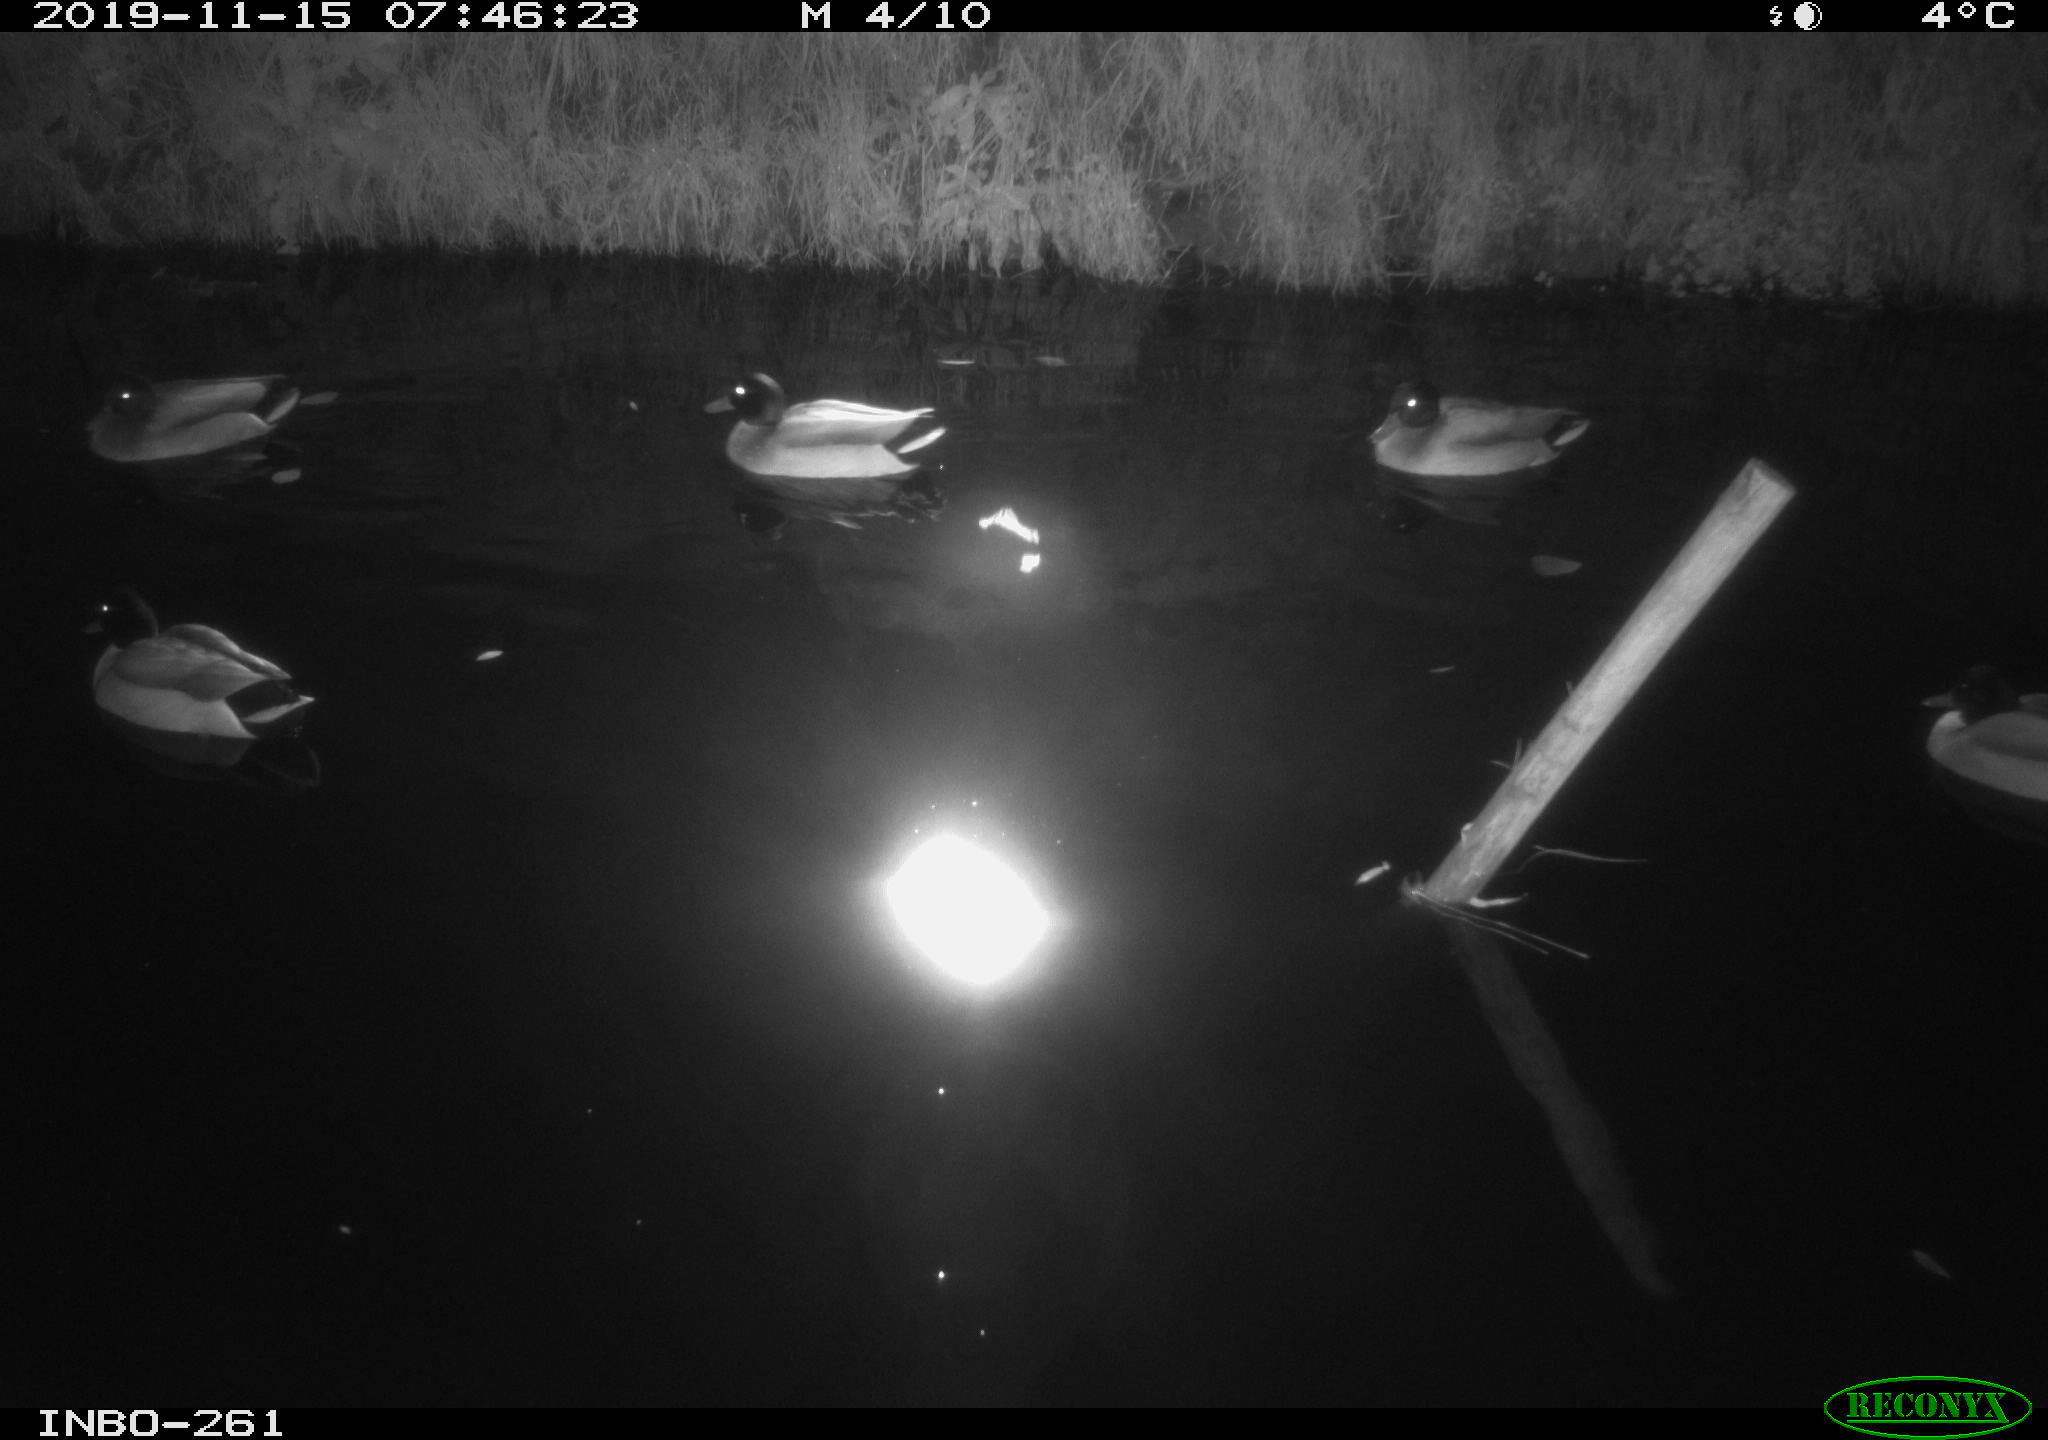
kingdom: Animalia
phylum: Chordata
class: Aves
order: Anseriformes
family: Anatidae
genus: Anas
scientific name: Anas platyrhynchos
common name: Mallard
